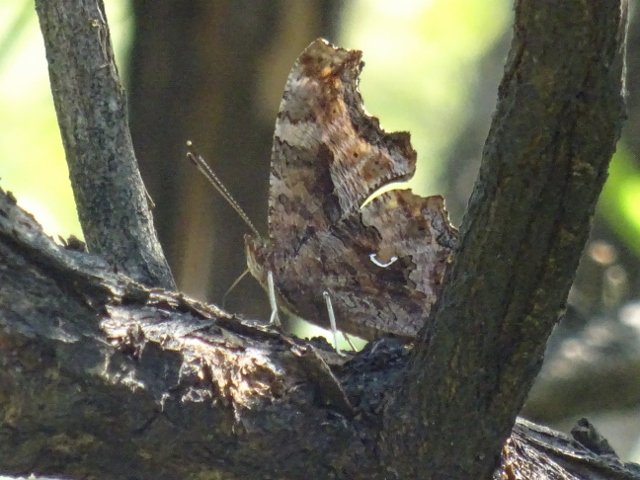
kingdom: Animalia
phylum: Arthropoda
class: Insecta
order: Lepidoptera
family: Nymphalidae
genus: Polygonia
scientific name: Polygonia comma
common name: Eastern Comma
